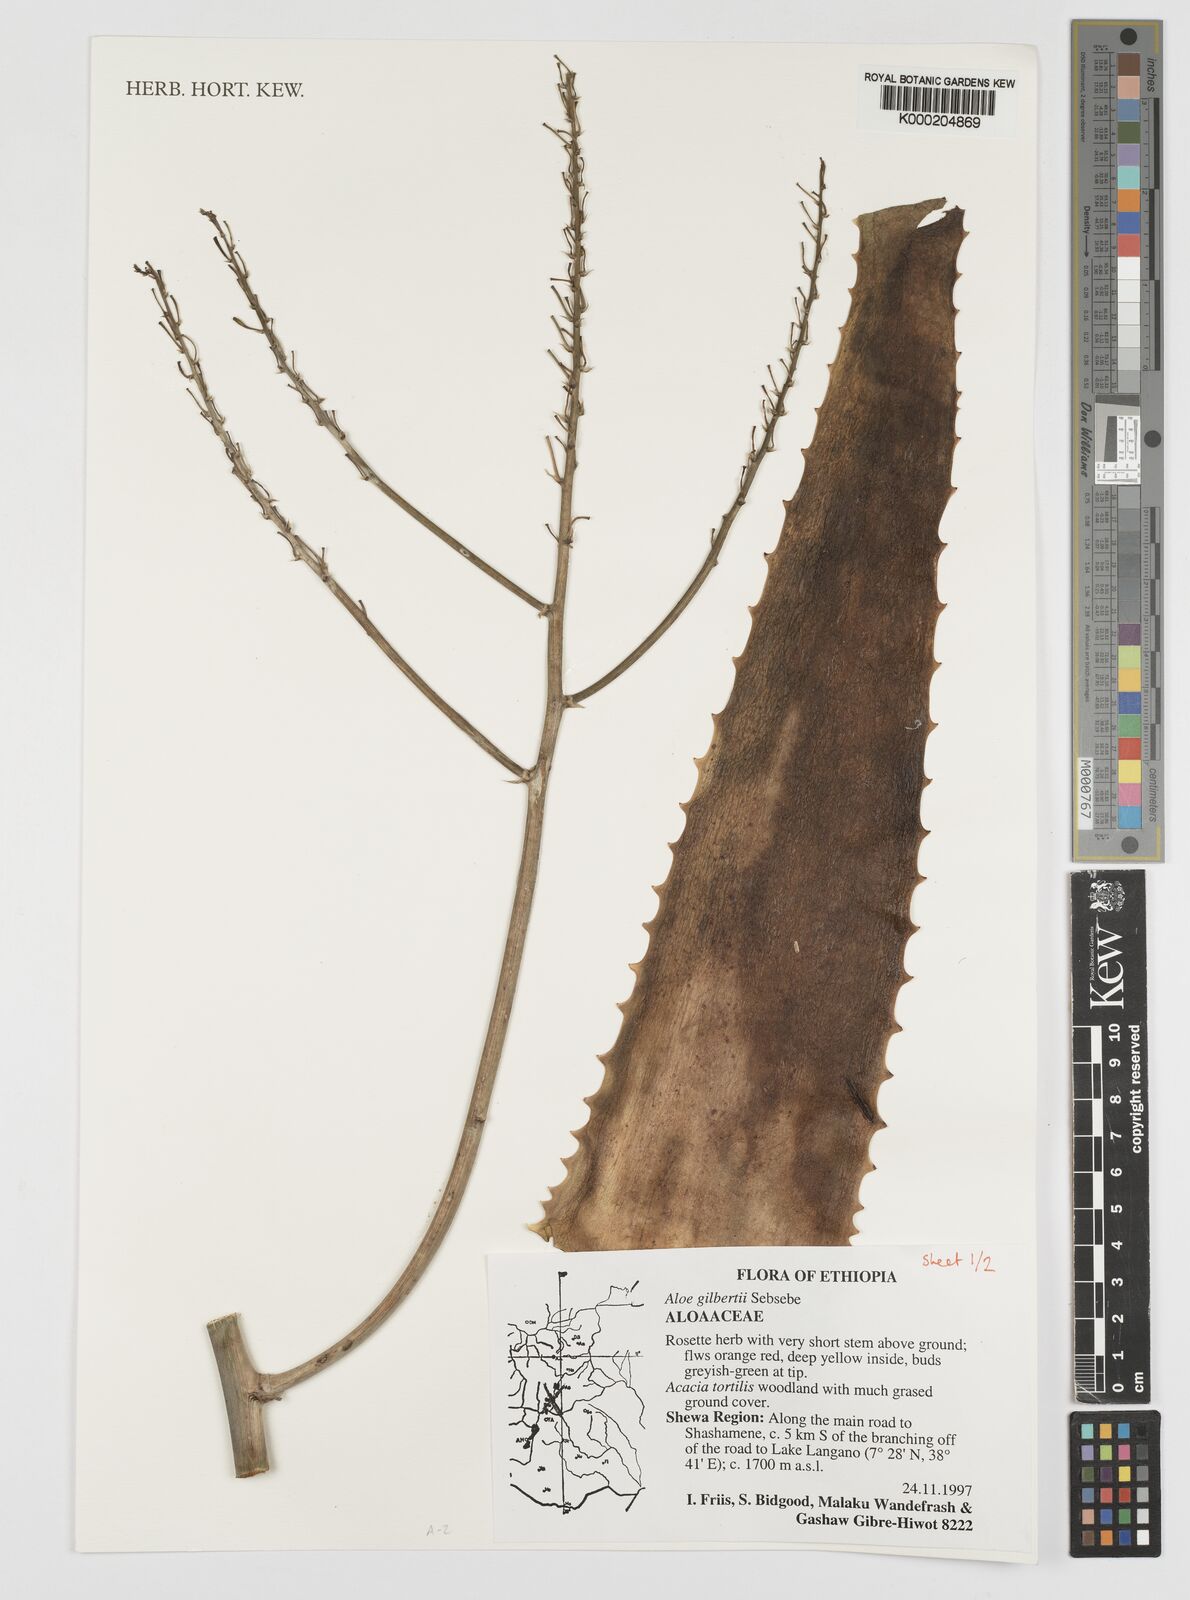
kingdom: Plantae
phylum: Tracheophyta
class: Liliopsida
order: Asparagales
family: Asphodelaceae
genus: Aloe
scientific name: Aloe gilbertii
